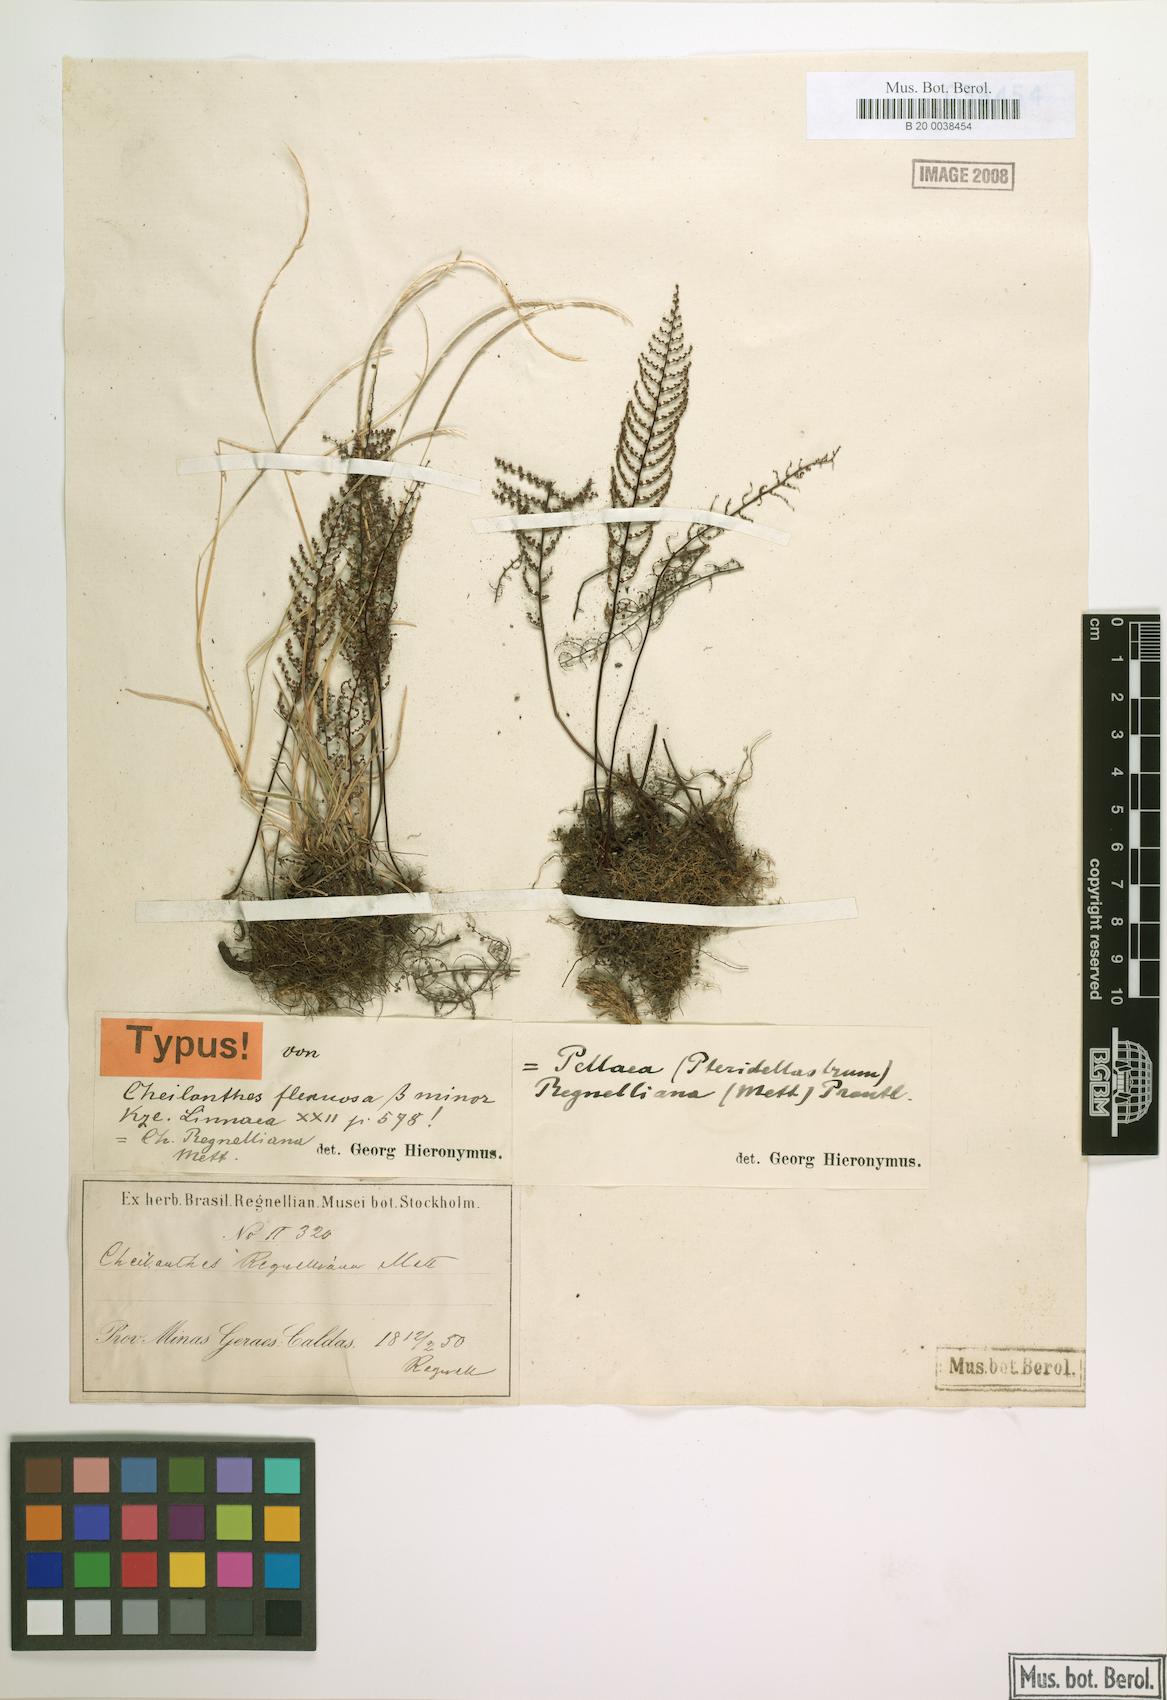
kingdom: Plantae
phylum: Tracheophyta
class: Polypodiopsida
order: Polypodiales
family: Pteridaceae
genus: Pellaea
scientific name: Pellaea regnelliana
